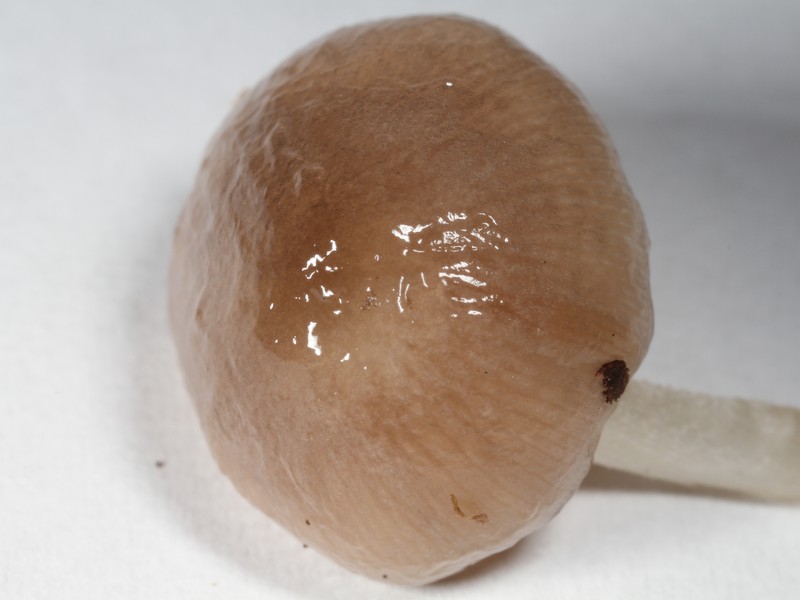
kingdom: Fungi
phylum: Basidiomycota
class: Agaricomycetes
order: Agaricales
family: Bolbitiaceae
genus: Bolbitius
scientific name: Bolbitius reticulatus
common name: Netted fieldcap
